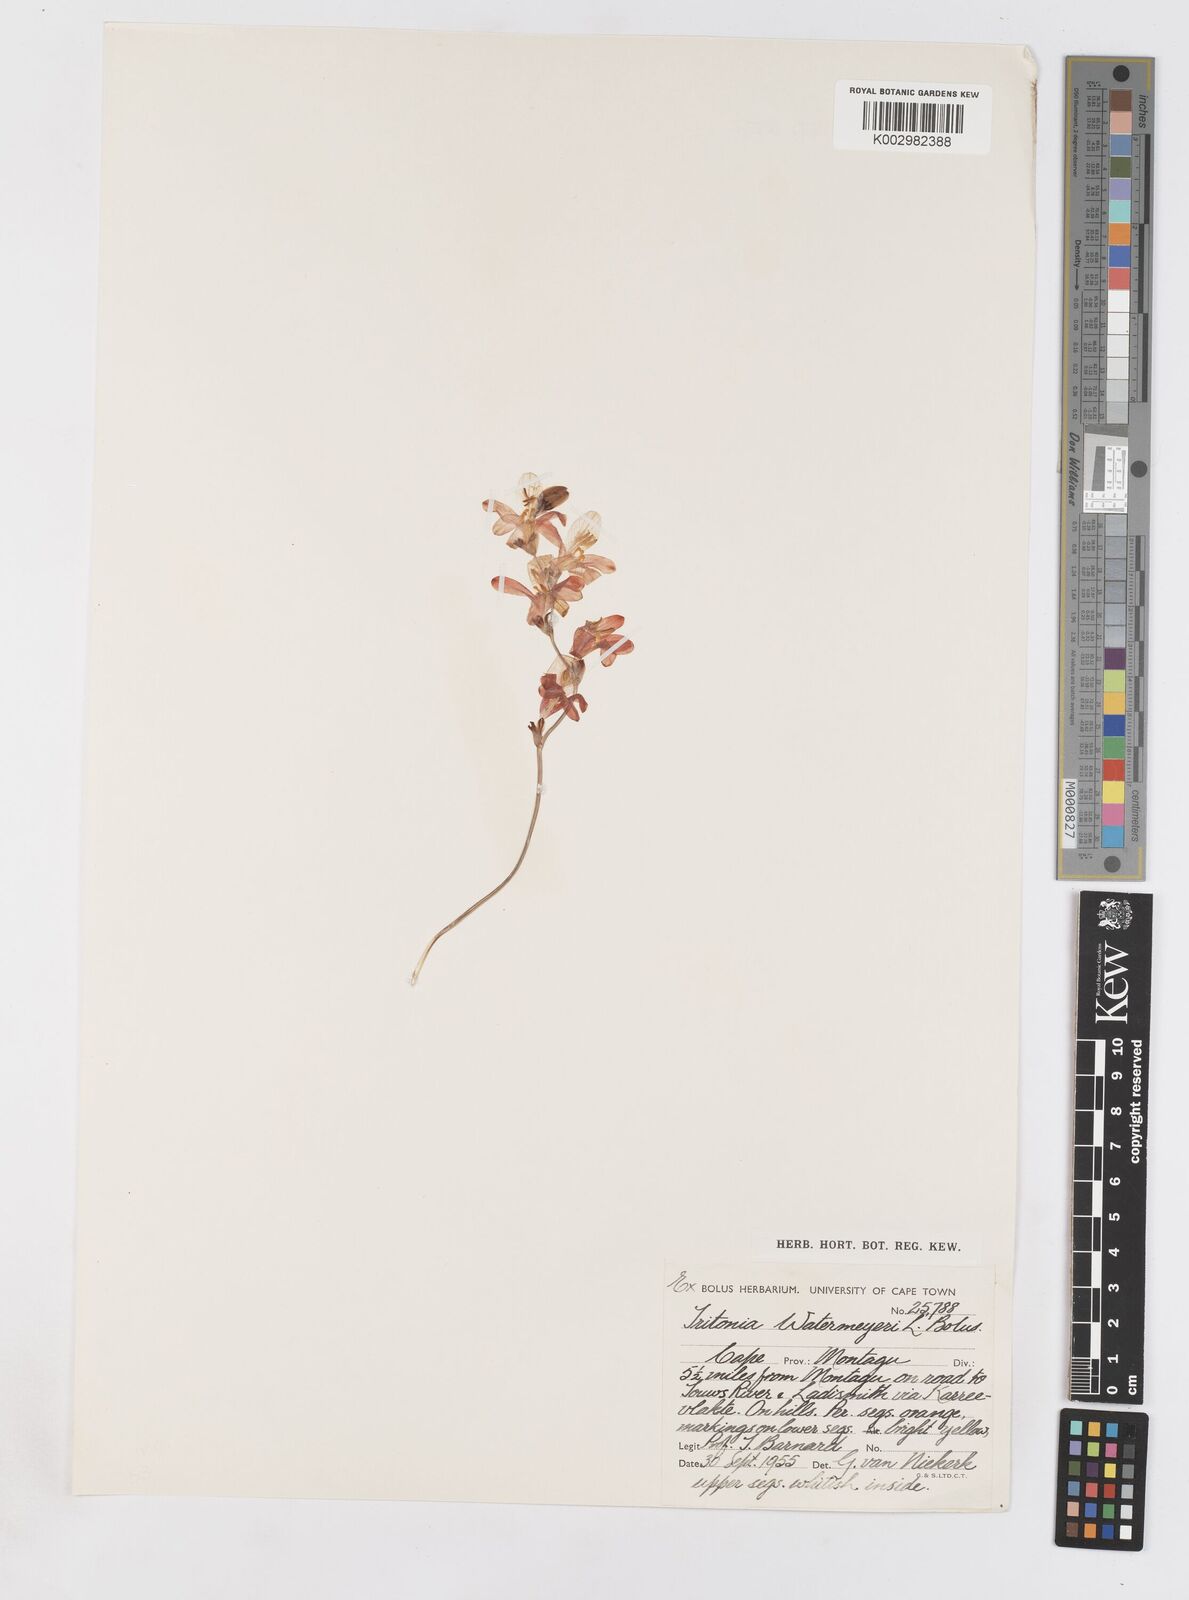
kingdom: Plantae
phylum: Tracheophyta
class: Liliopsida
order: Asparagales
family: Iridaceae
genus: Tritonia
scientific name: Tritonia watermeyeri
